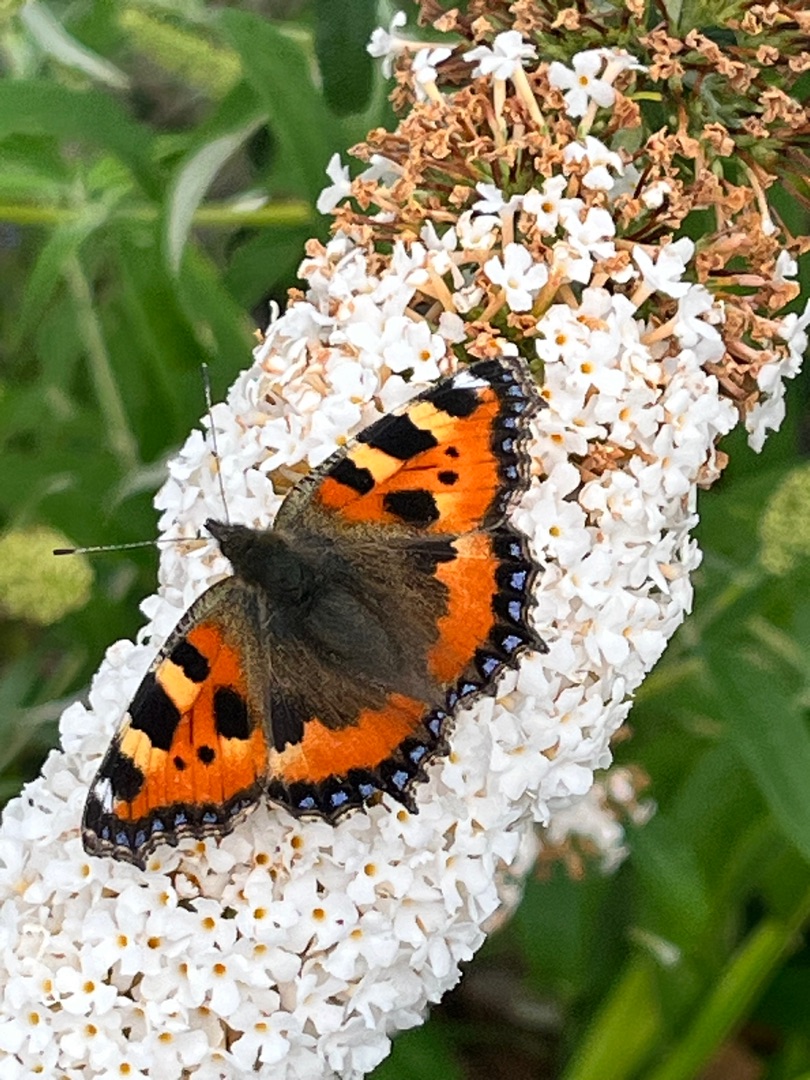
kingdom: Animalia
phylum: Arthropoda
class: Insecta
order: Lepidoptera
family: Nymphalidae
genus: Aglais
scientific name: Aglais urticae
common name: Nældens takvinge
